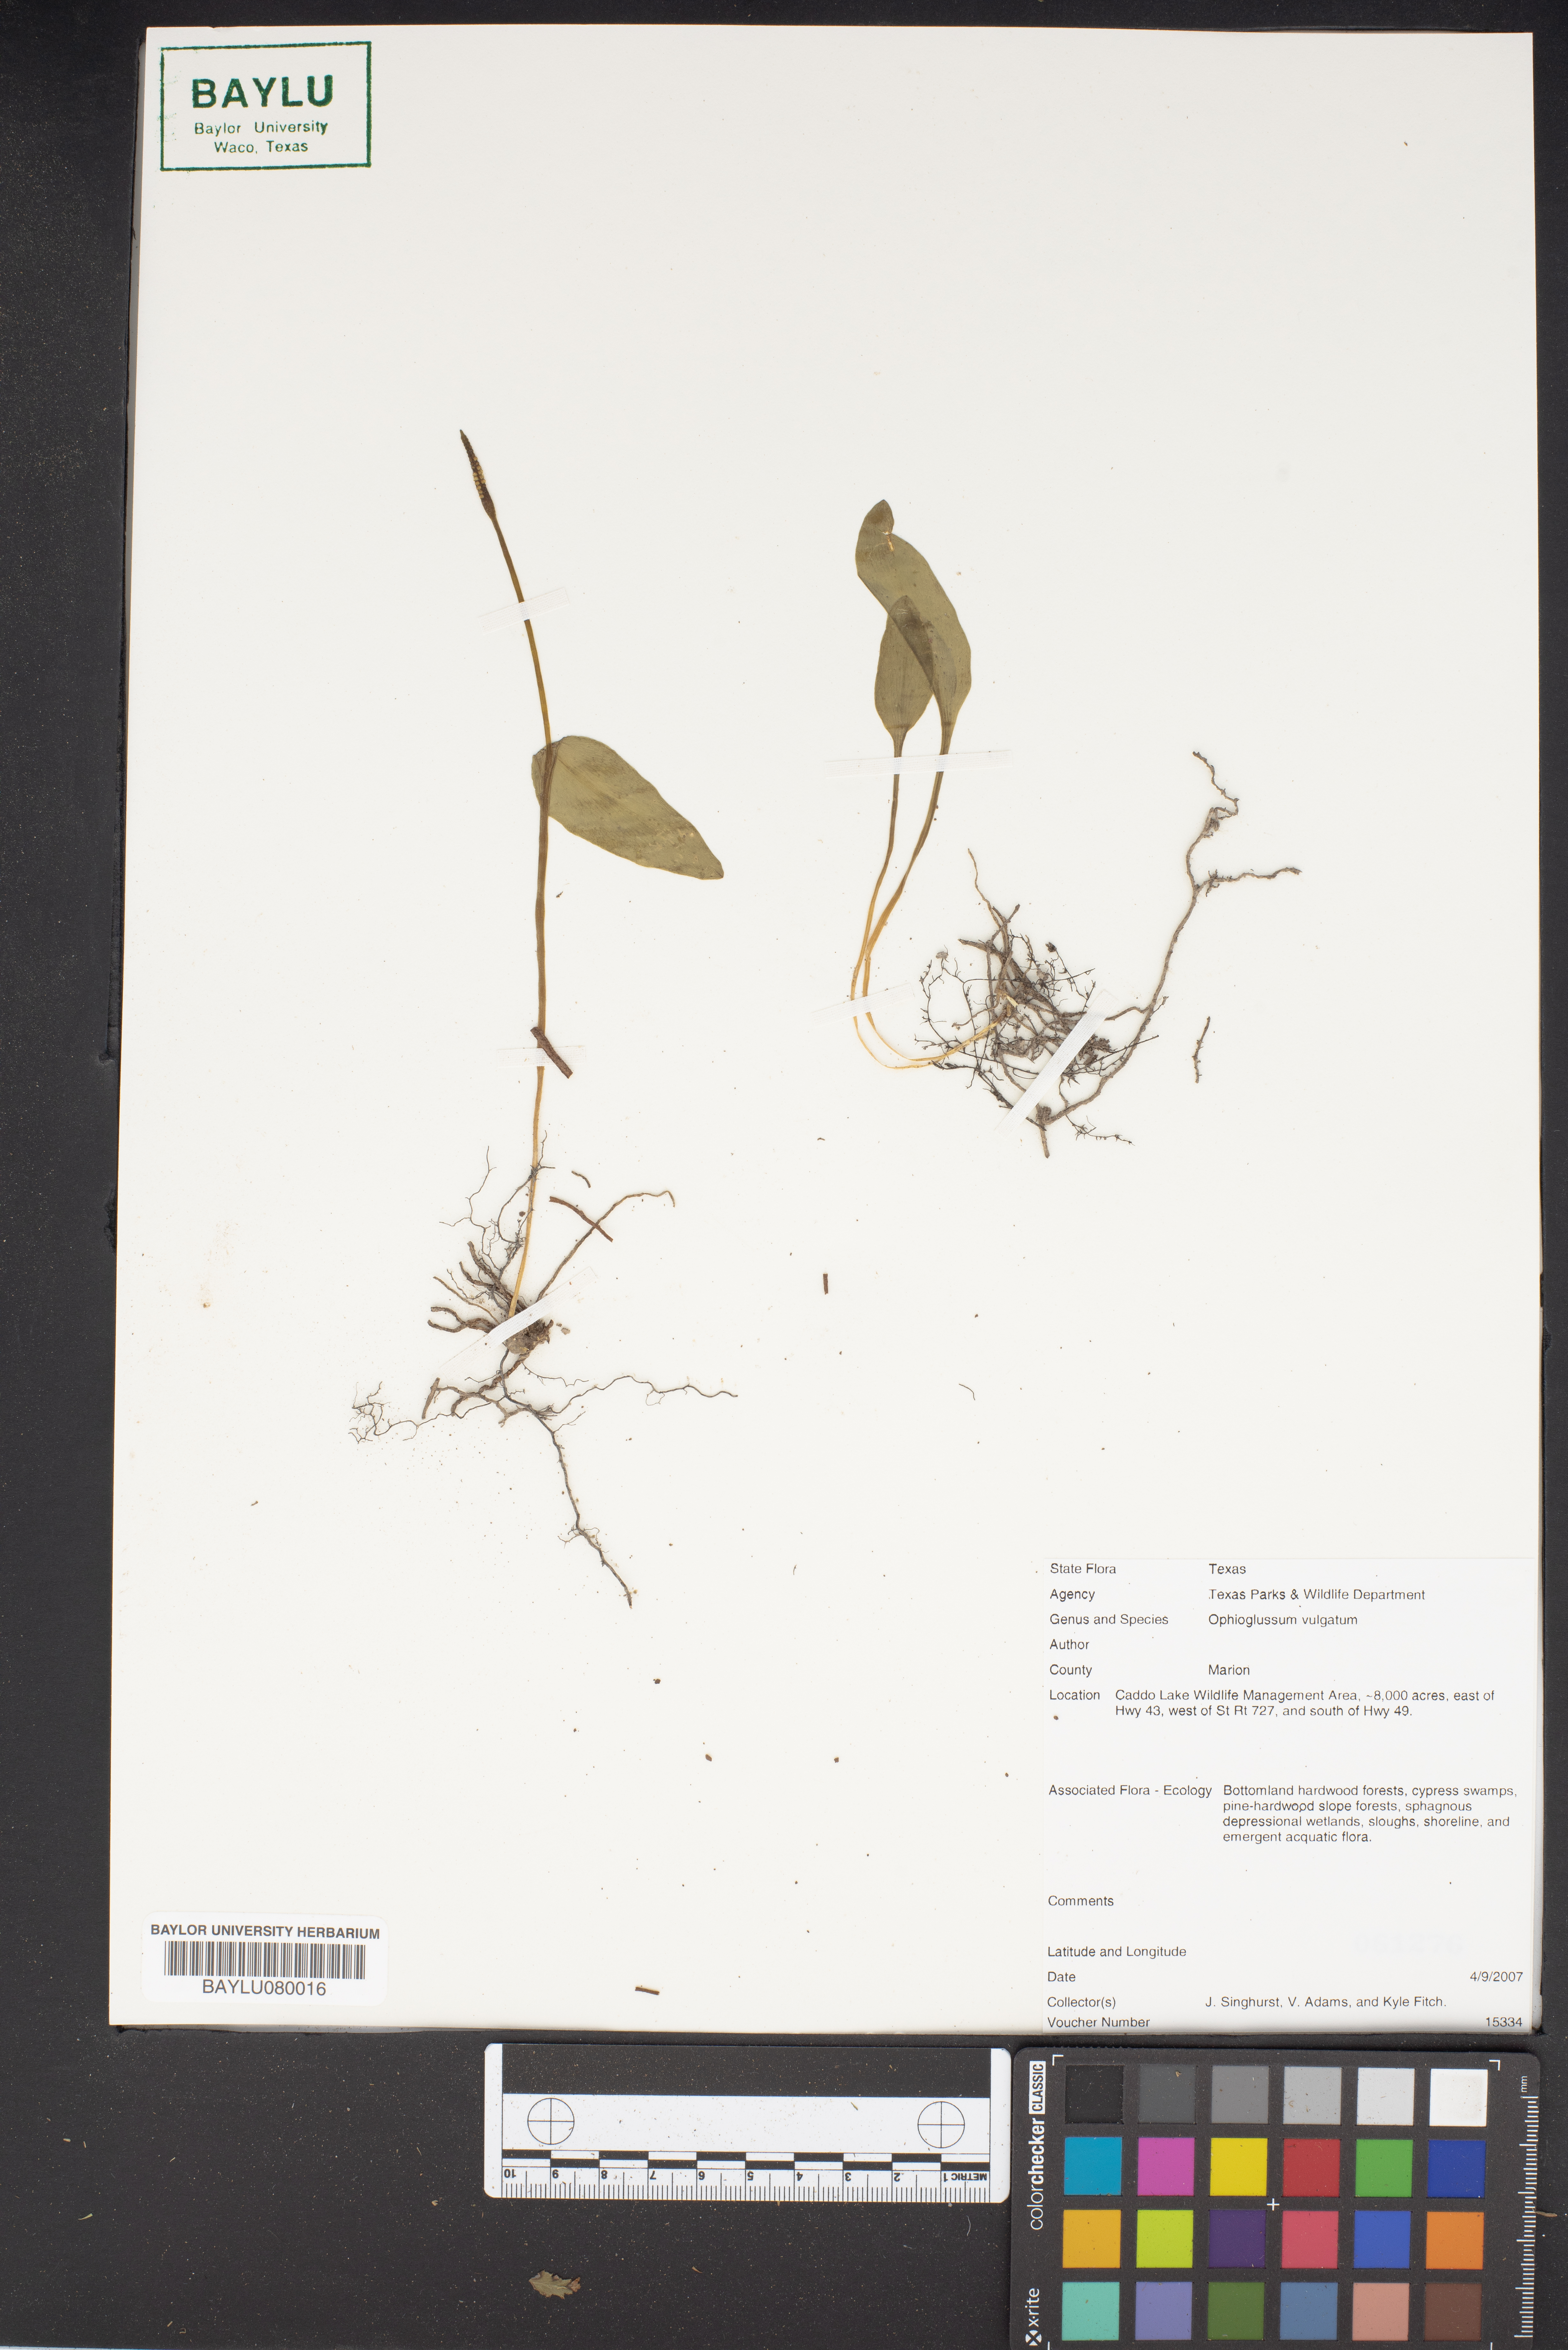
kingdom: Plantae
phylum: Tracheophyta
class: Polypodiopsida
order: Ophioglossales
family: Ophioglossaceae
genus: Ophioglossum
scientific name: Ophioglossum vulgatum
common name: Adder's-tongue
